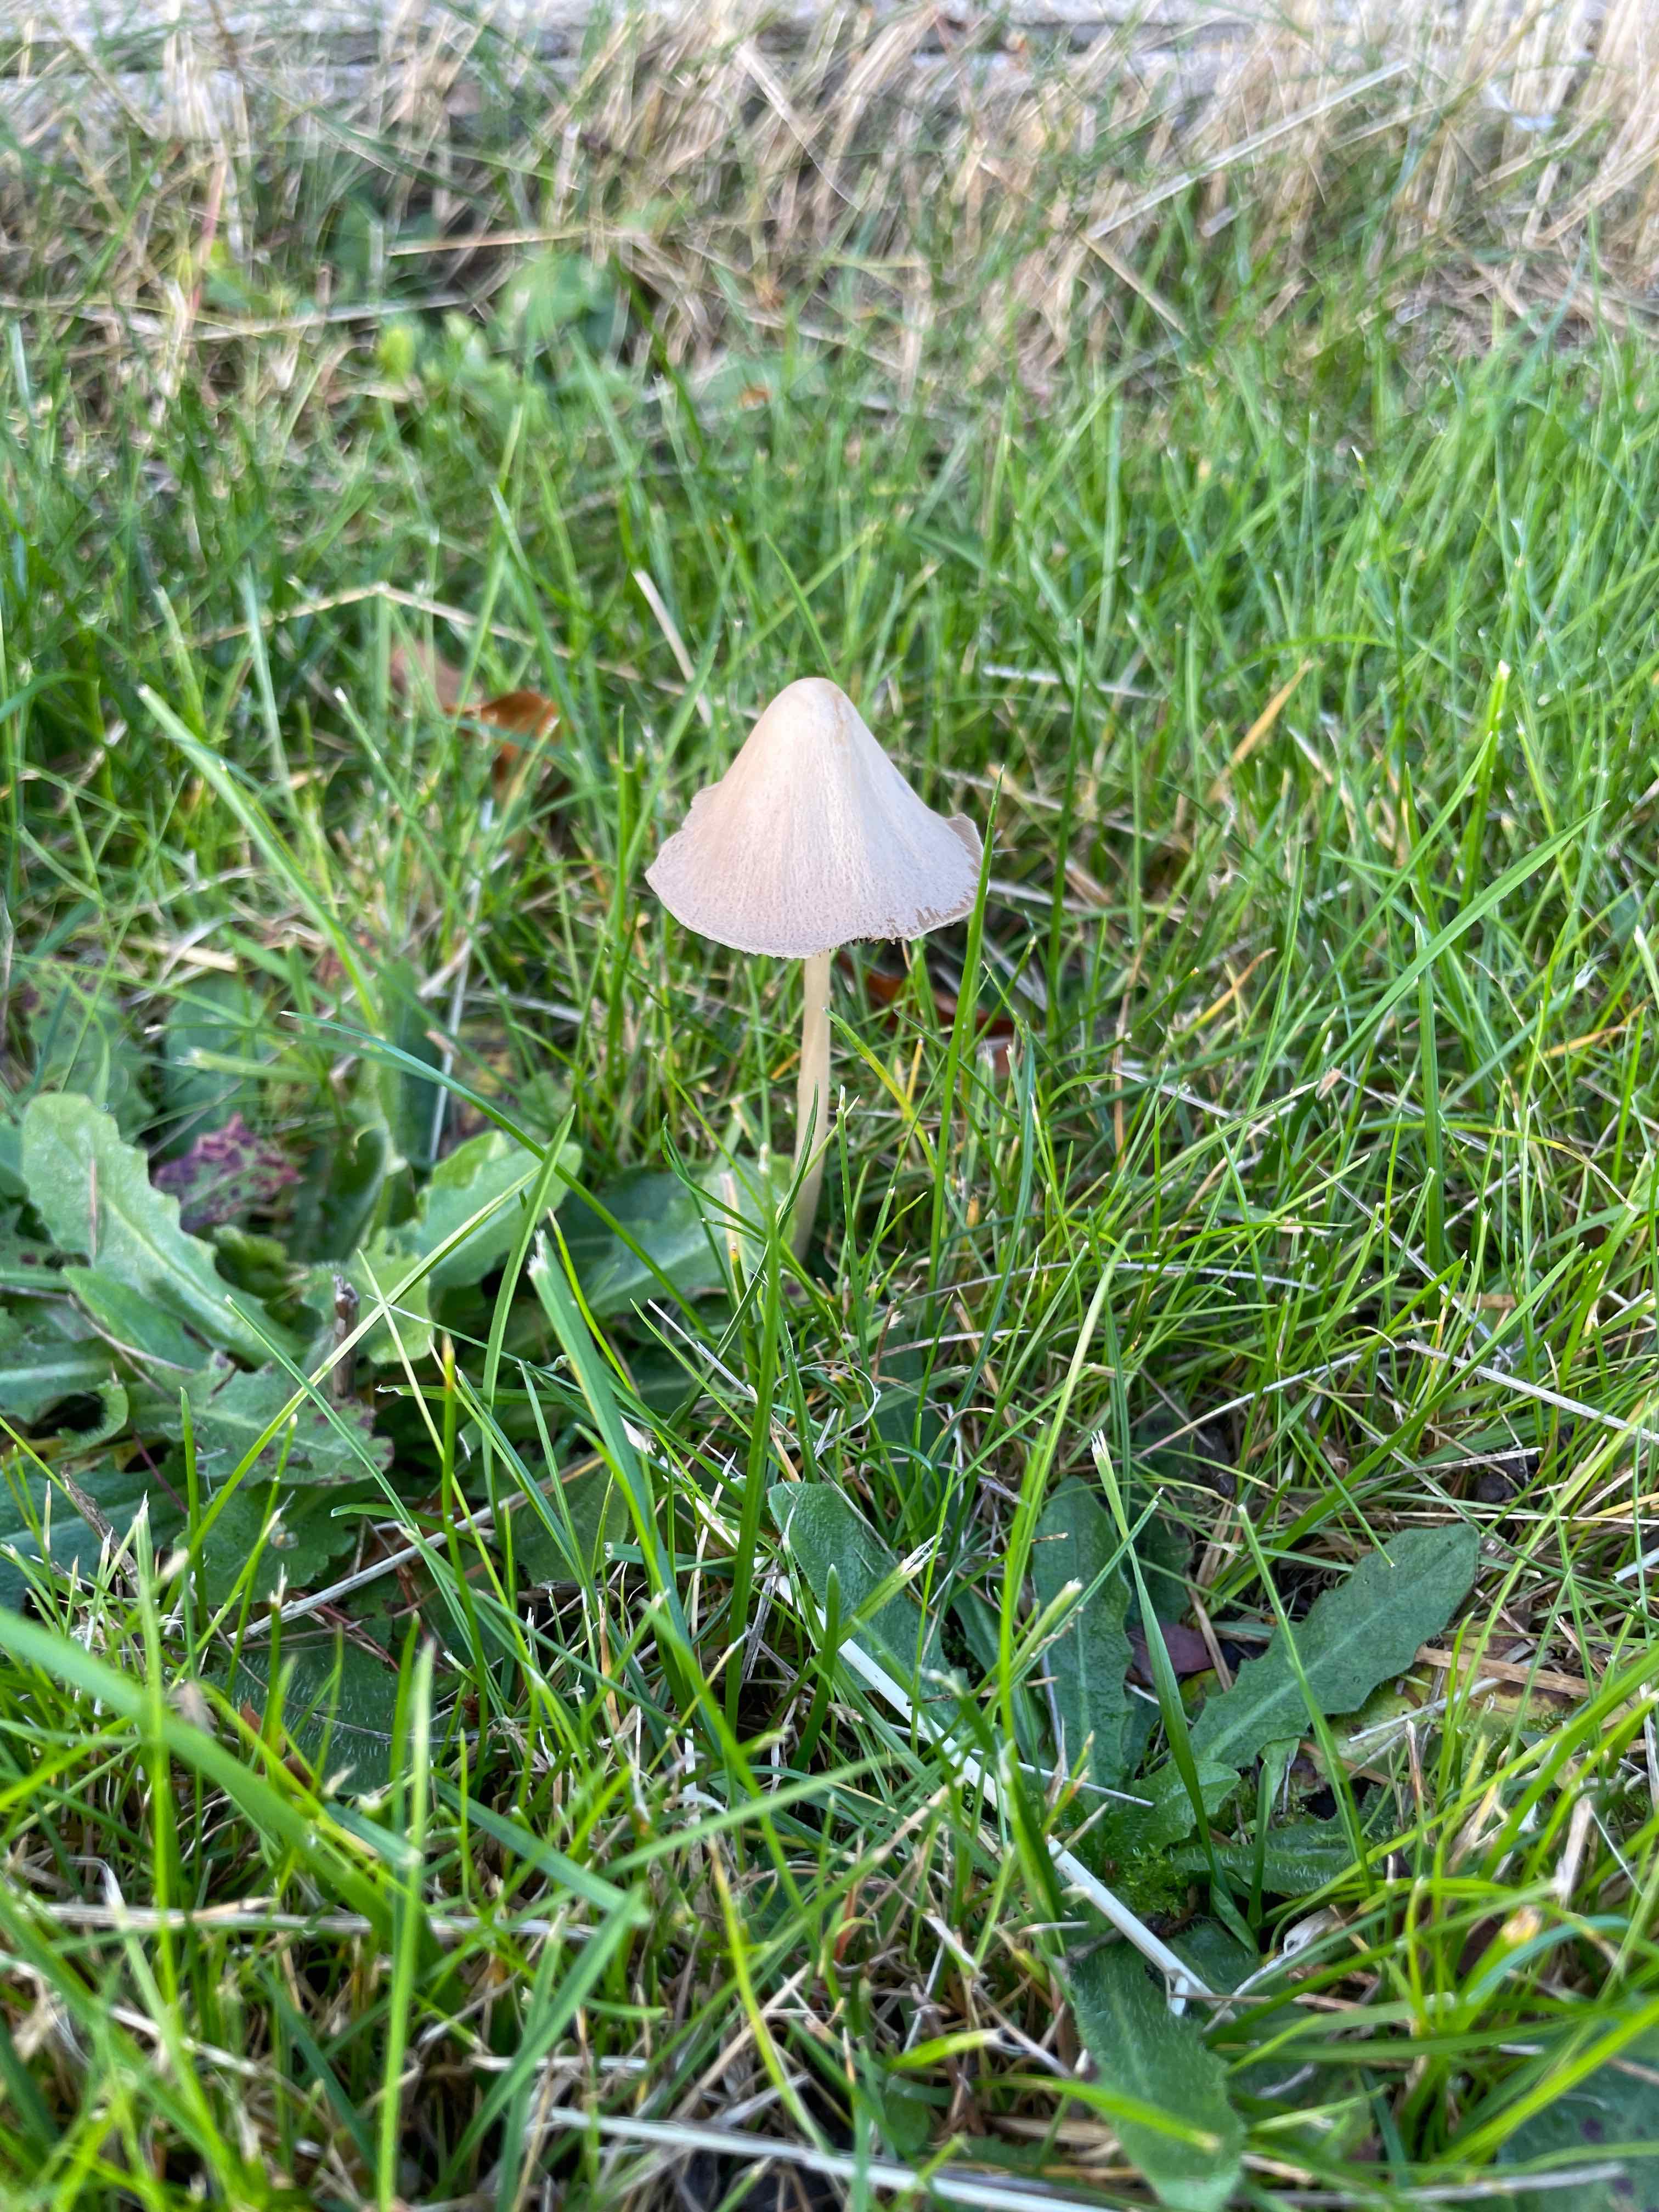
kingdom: Fungi
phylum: Basidiomycota
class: Agaricomycetes
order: Agaricales
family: Psathyrellaceae
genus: Parasola
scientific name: Parasola conopilea
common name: kegle-hjulhat
